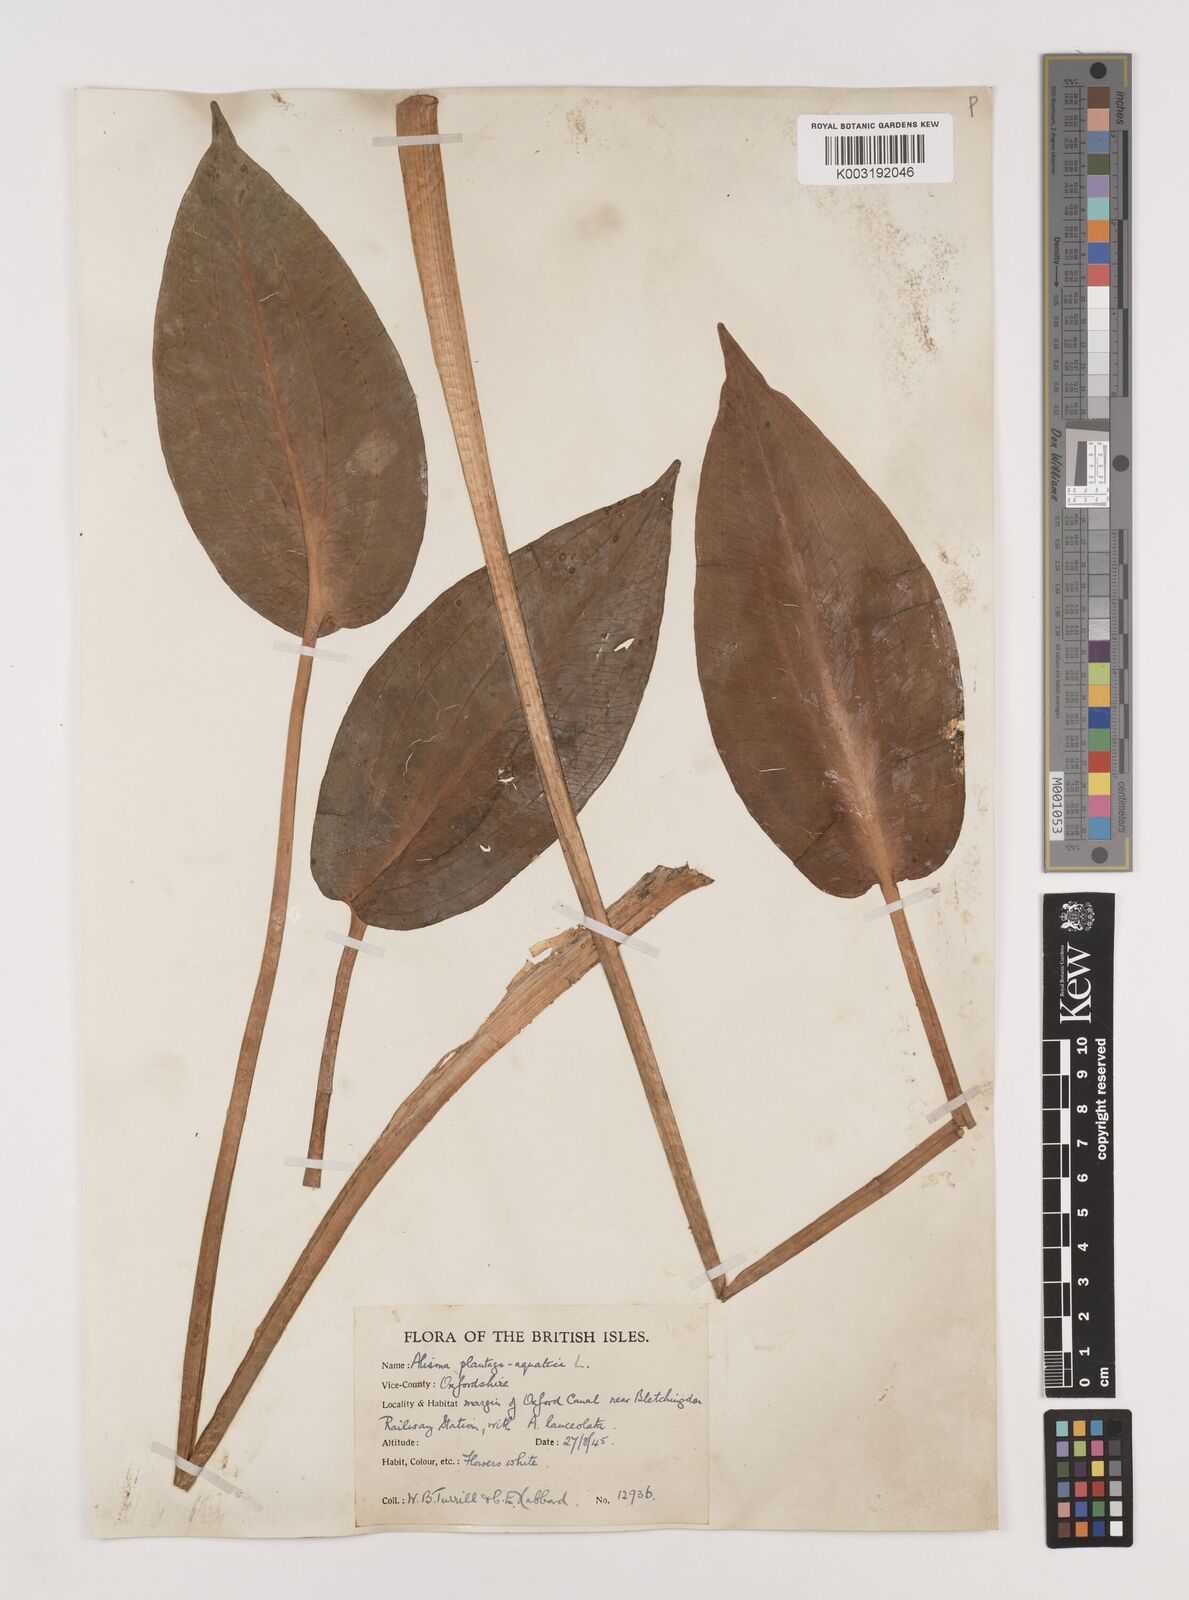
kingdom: Plantae
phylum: Tracheophyta
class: Liliopsida
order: Alismatales
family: Alismataceae
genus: Alisma
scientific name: Alisma plantago-aquatica
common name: Water-plantain
